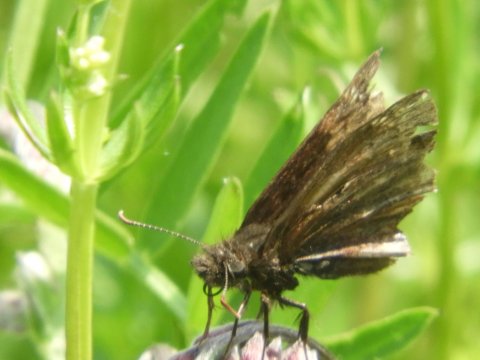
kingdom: Animalia
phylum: Arthropoda
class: Insecta
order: Lepidoptera
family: Hesperiidae
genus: Erynnis
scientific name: Erynnis
